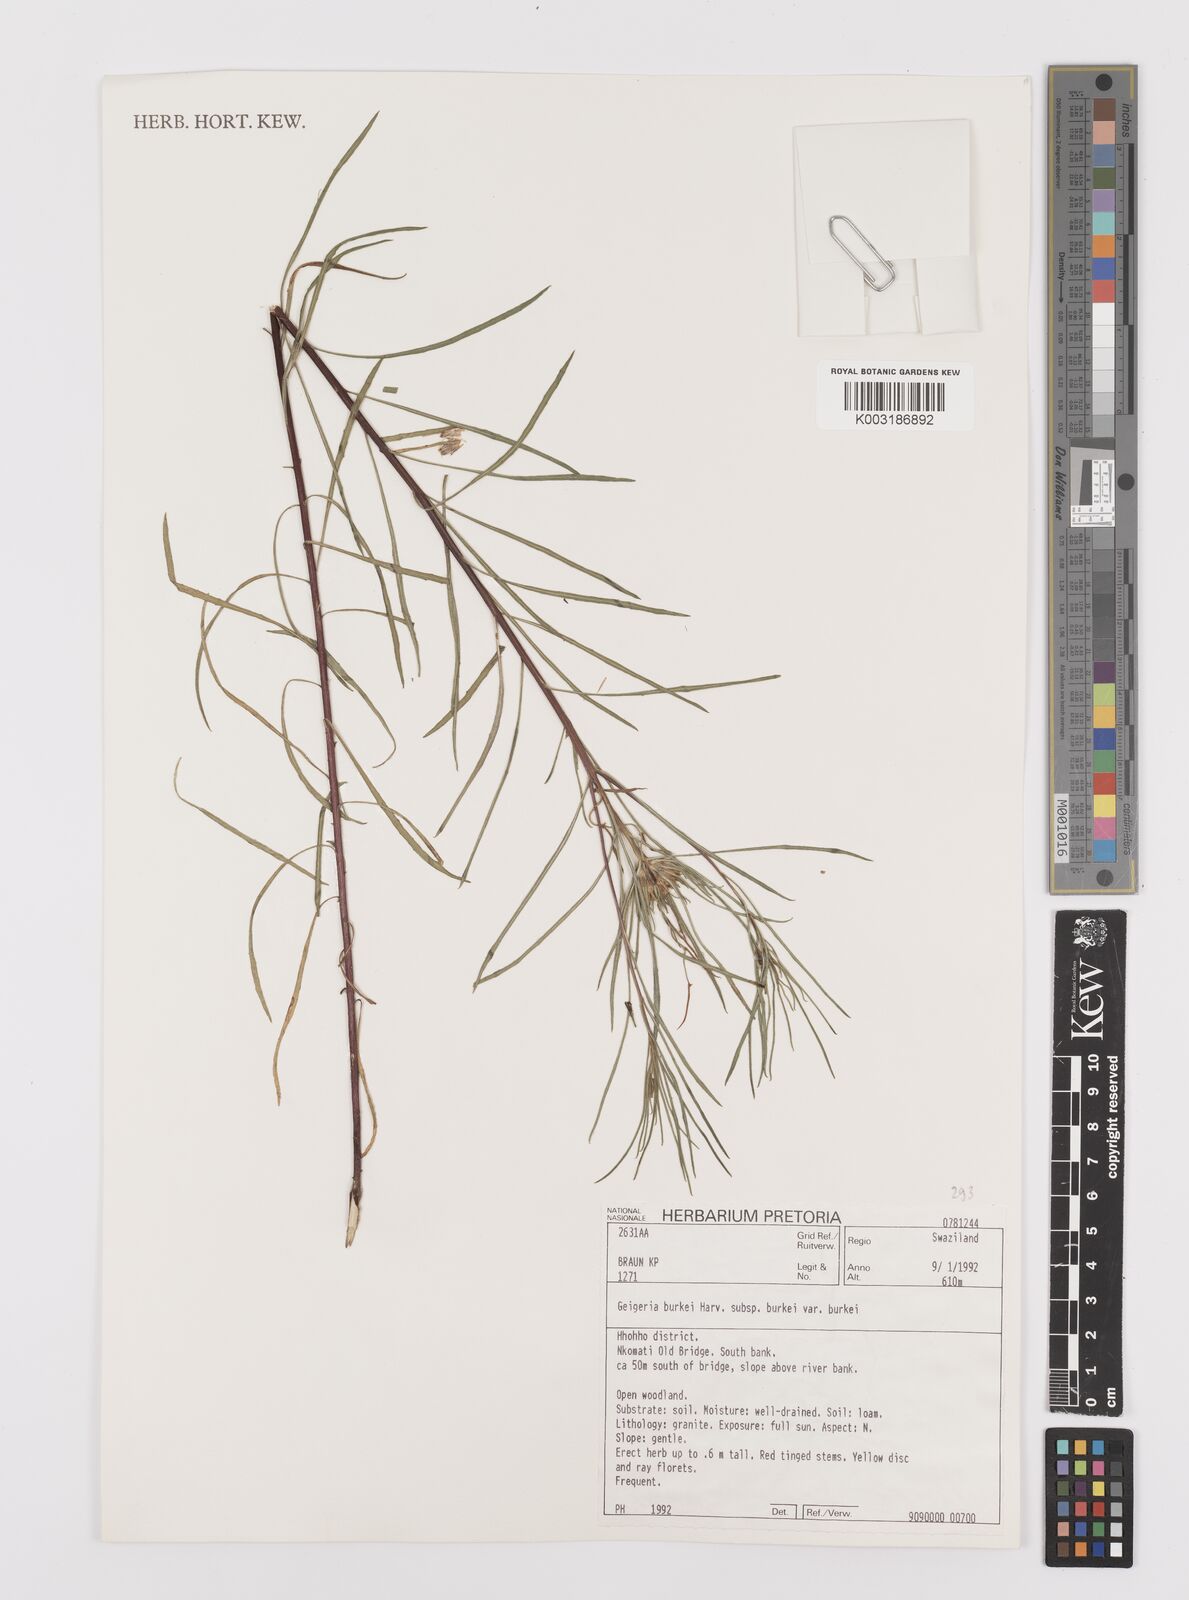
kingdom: Plantae
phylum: Tracheophyta
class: Magnoliopsida
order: Asterales
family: Asteraceae
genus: Geigeria
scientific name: Geigeria burkei
